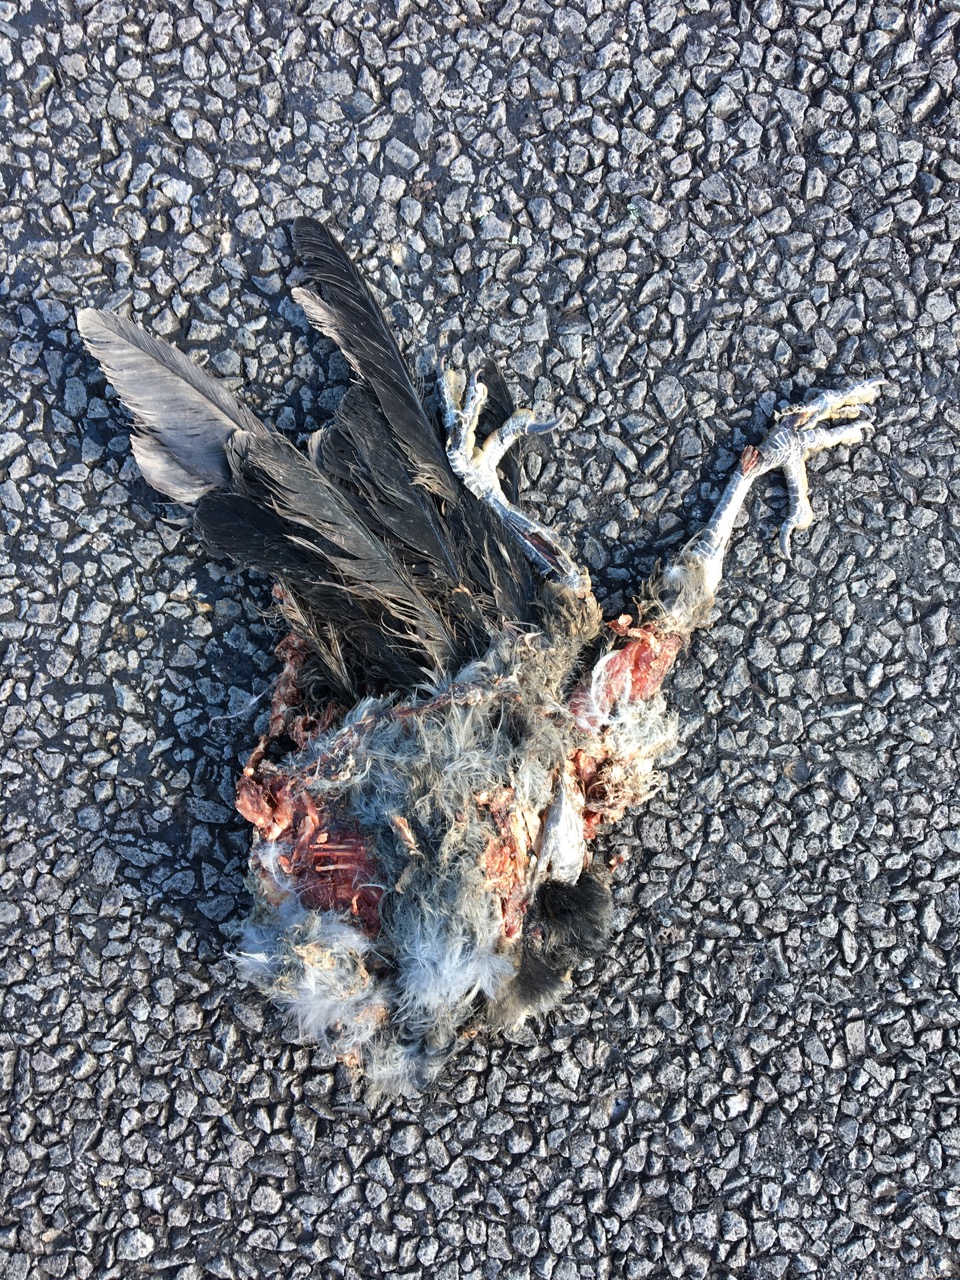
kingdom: Animalia
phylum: Chordata
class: Aves
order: Passeriformes
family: Cracticidae
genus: Gymnorhina
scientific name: Gymnorhina tibicen
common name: Australian magpie
